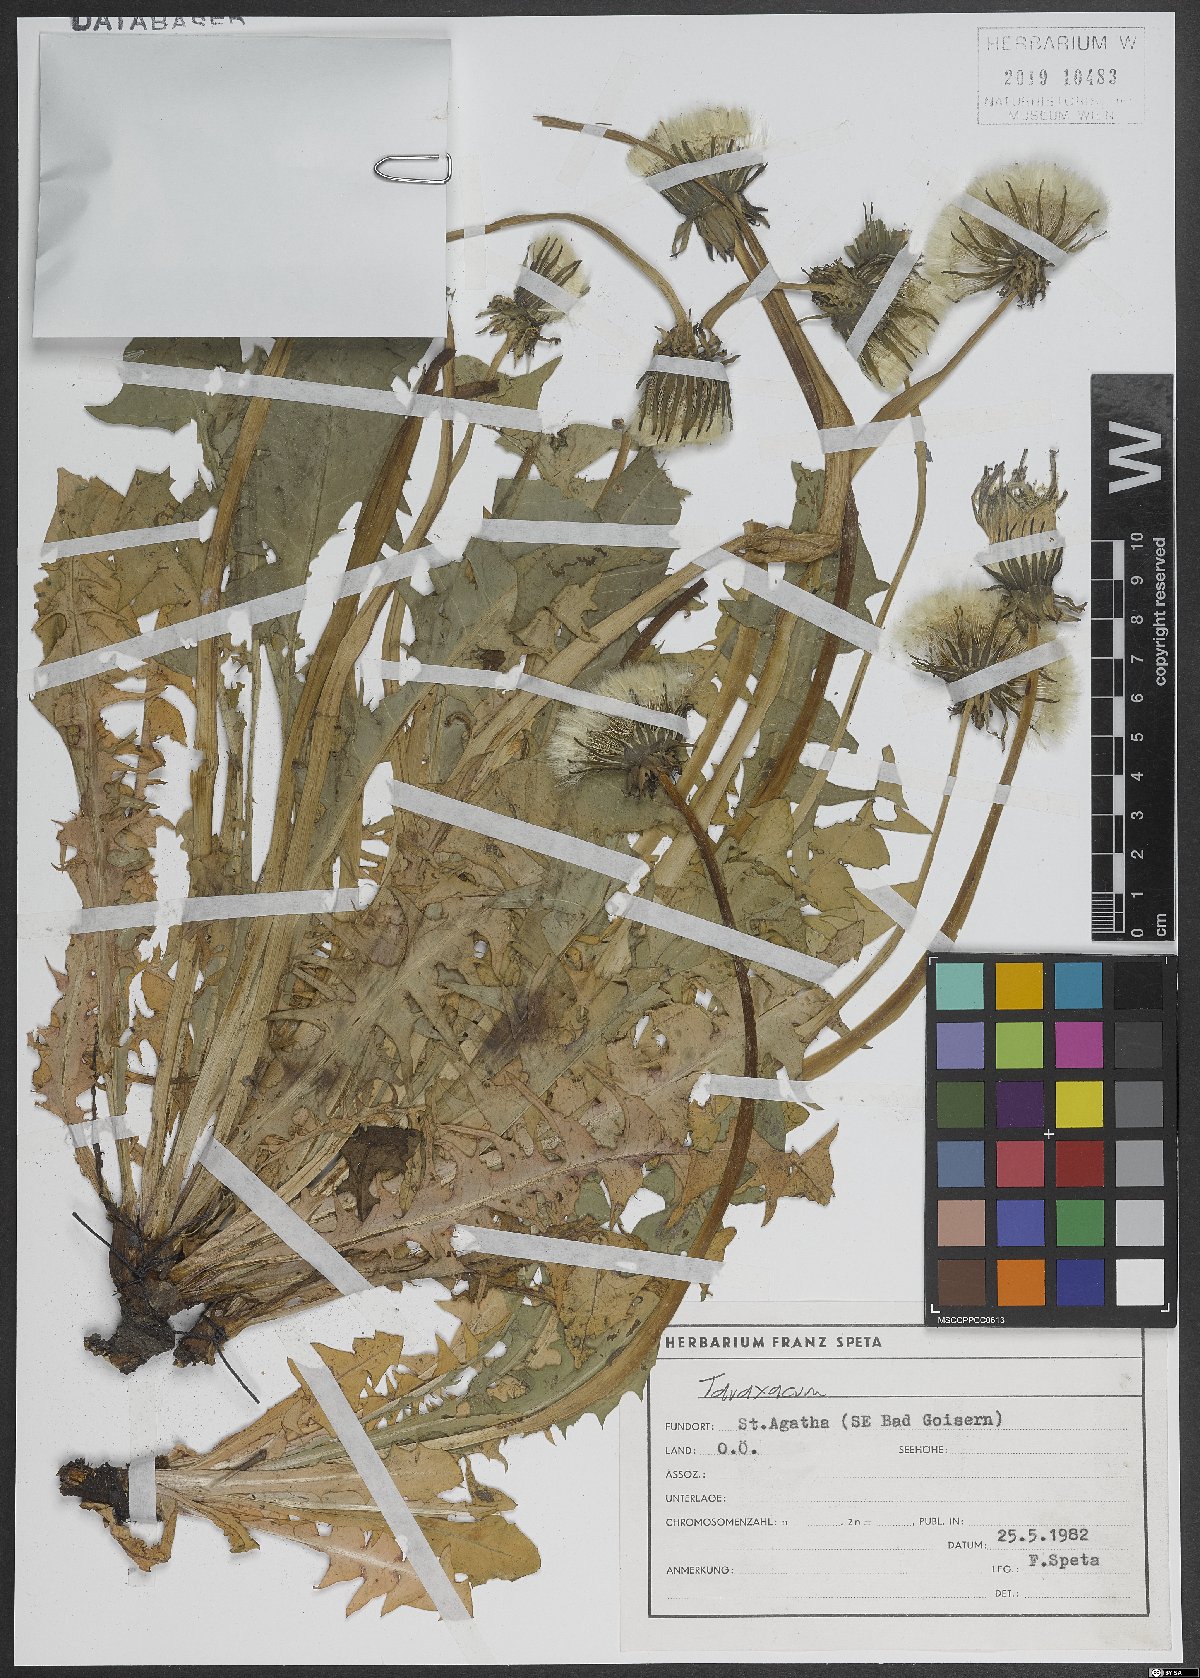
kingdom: Plantae
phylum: Tracheophyta
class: Magnoliopsida
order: Asterales
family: Asteraceae
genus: Taraxacum
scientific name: Taraxacum
